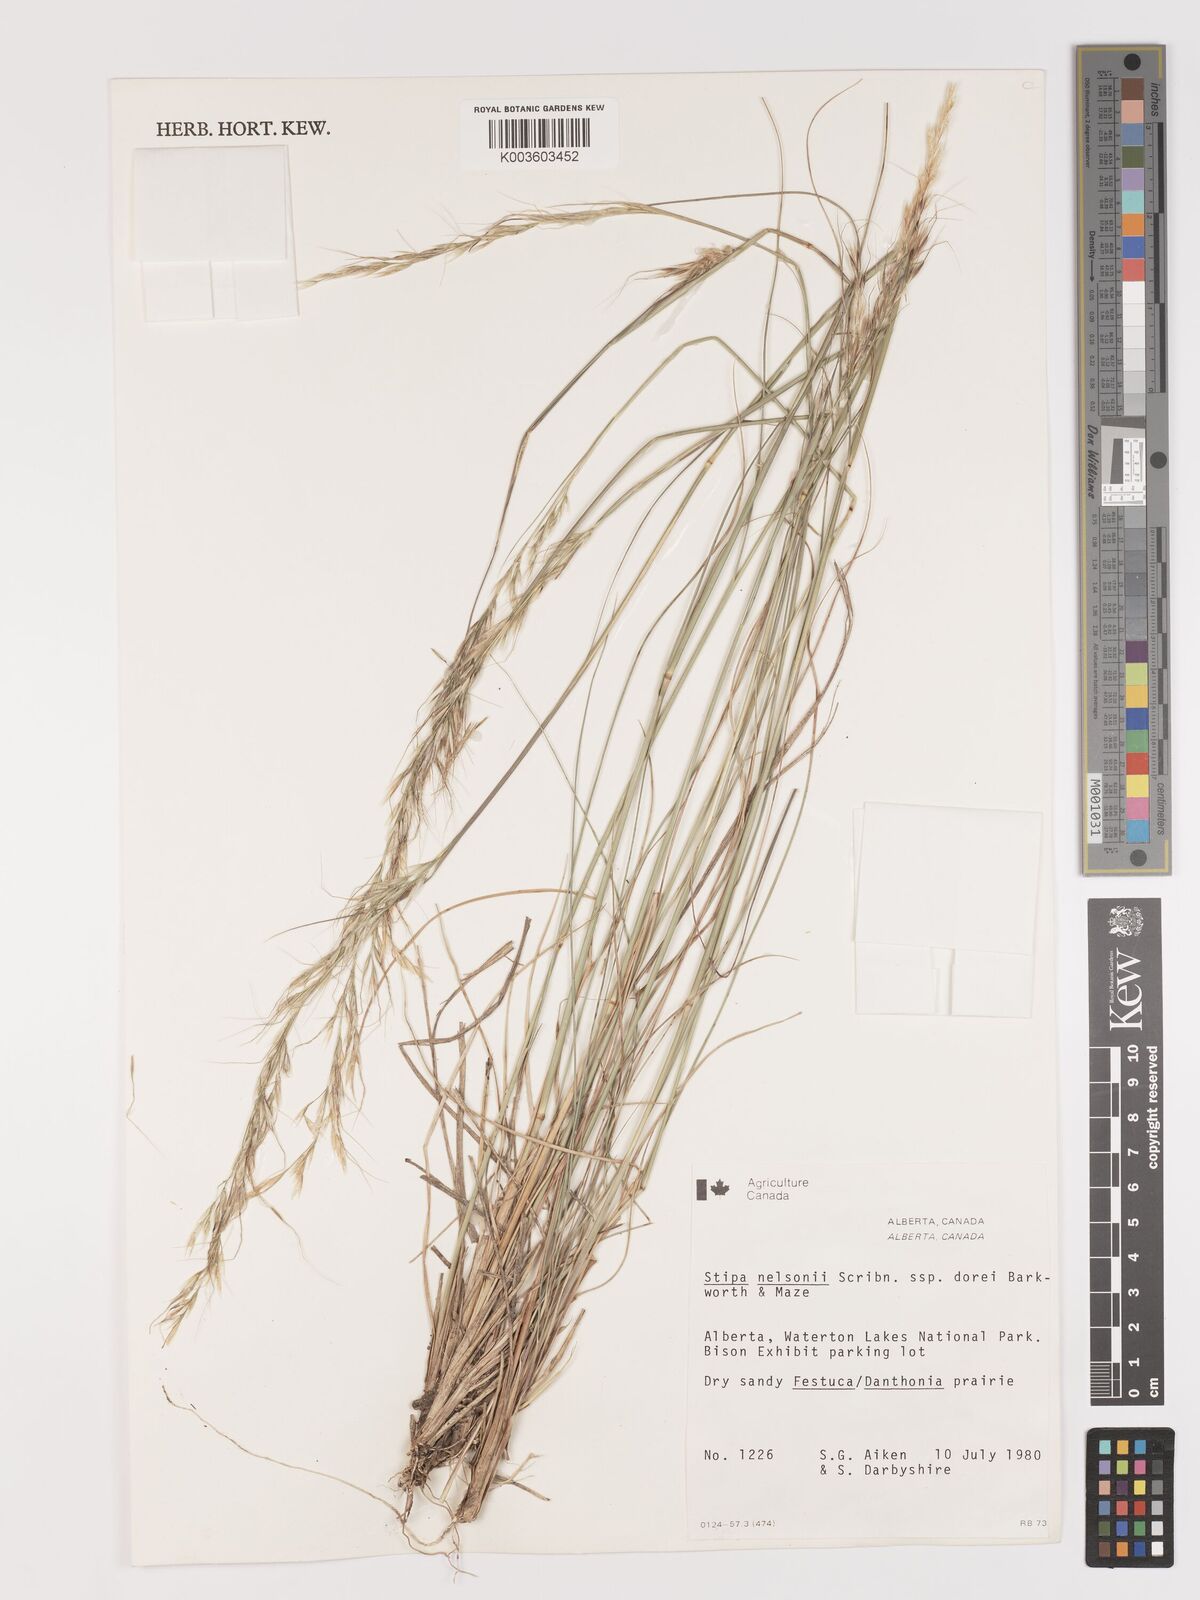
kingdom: Plantae
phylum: Tracheophyta
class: Liliopsida
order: Poales
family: Poaceae
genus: Eriocoma
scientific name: Eriocoma nelsonii
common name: Nelson's needlegrass
